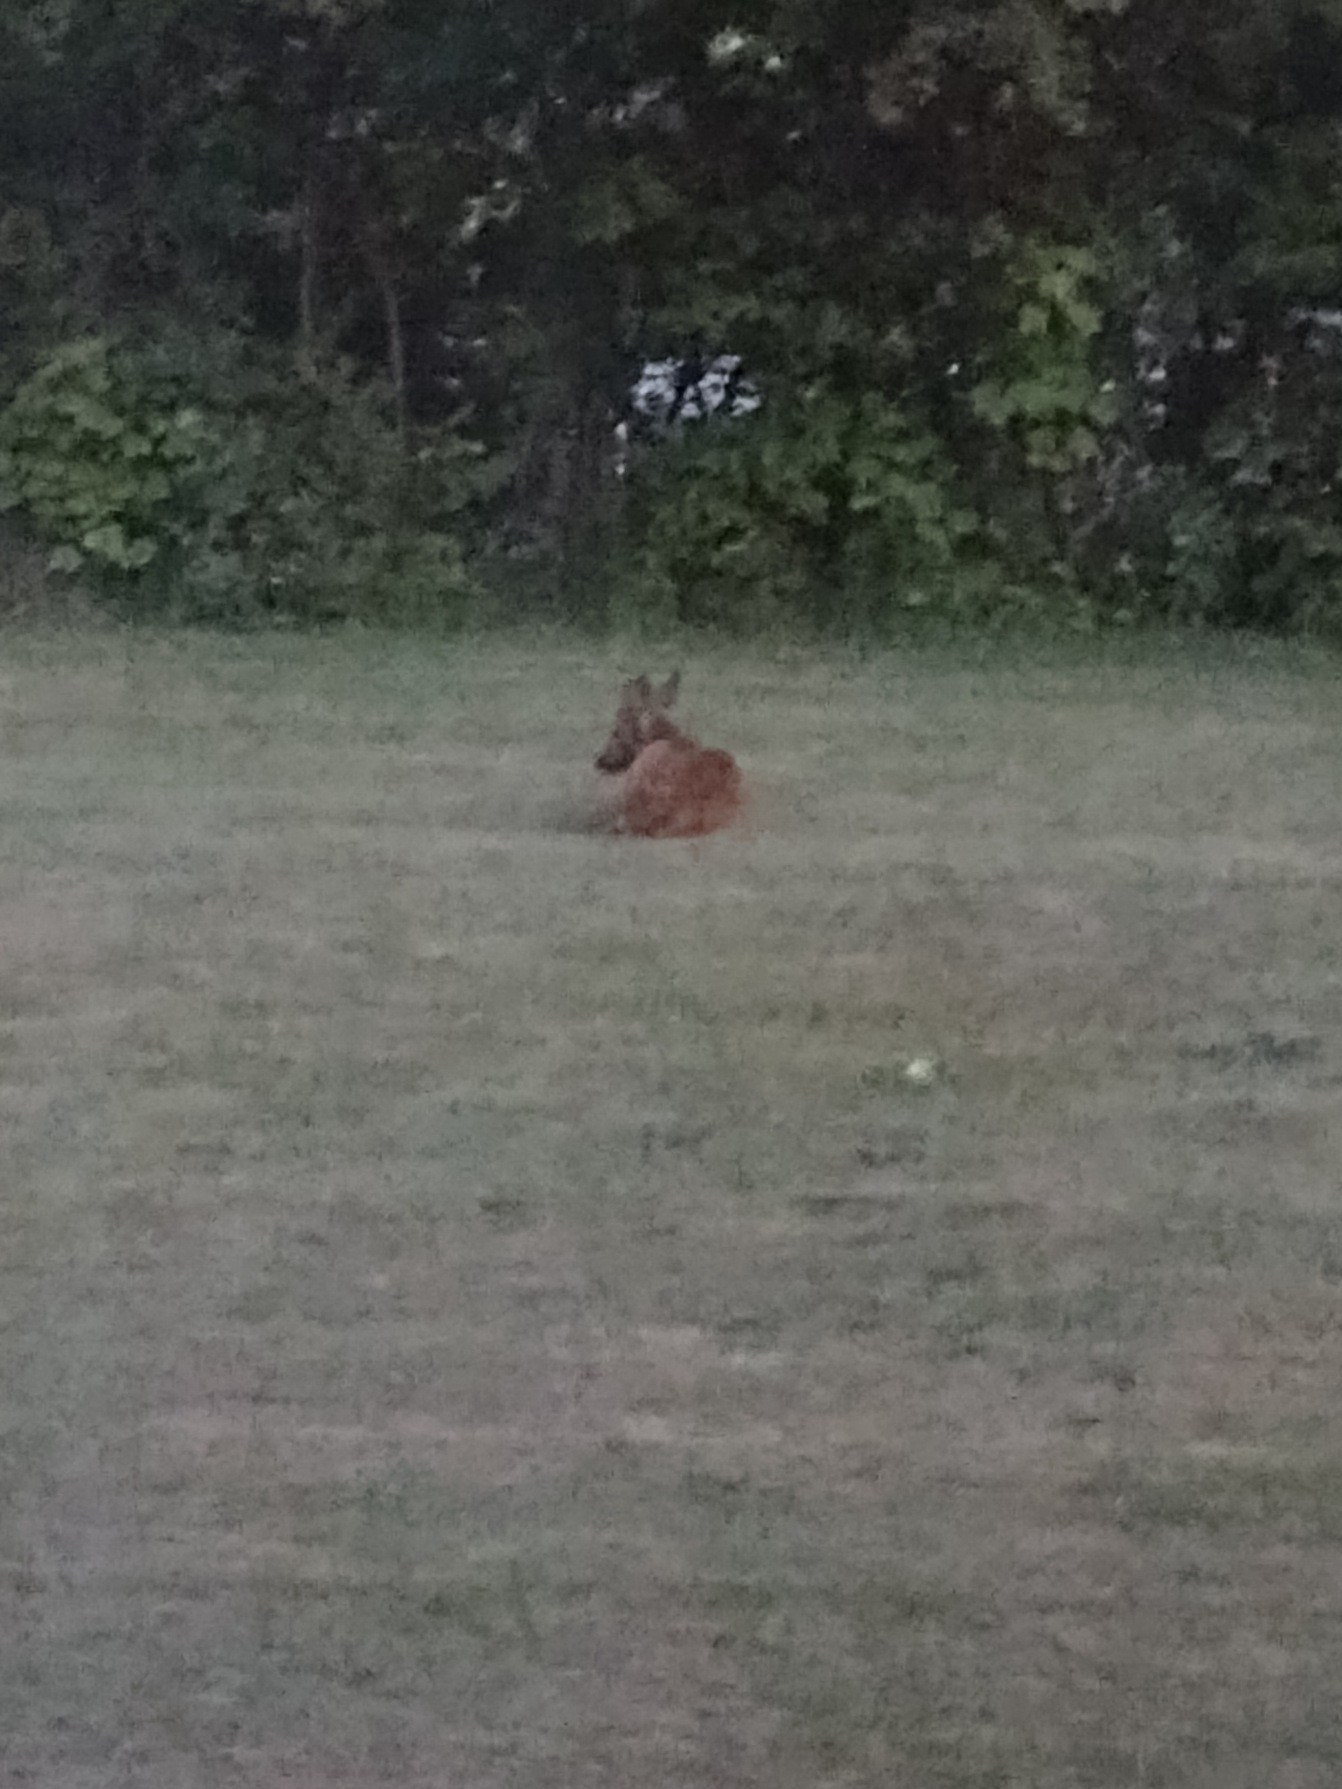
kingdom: Animalia
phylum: Chordata
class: Mammalia
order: Artiodactyla
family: Cervidae
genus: Capreolus
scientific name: Capreolus capreolus
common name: Rådyr
